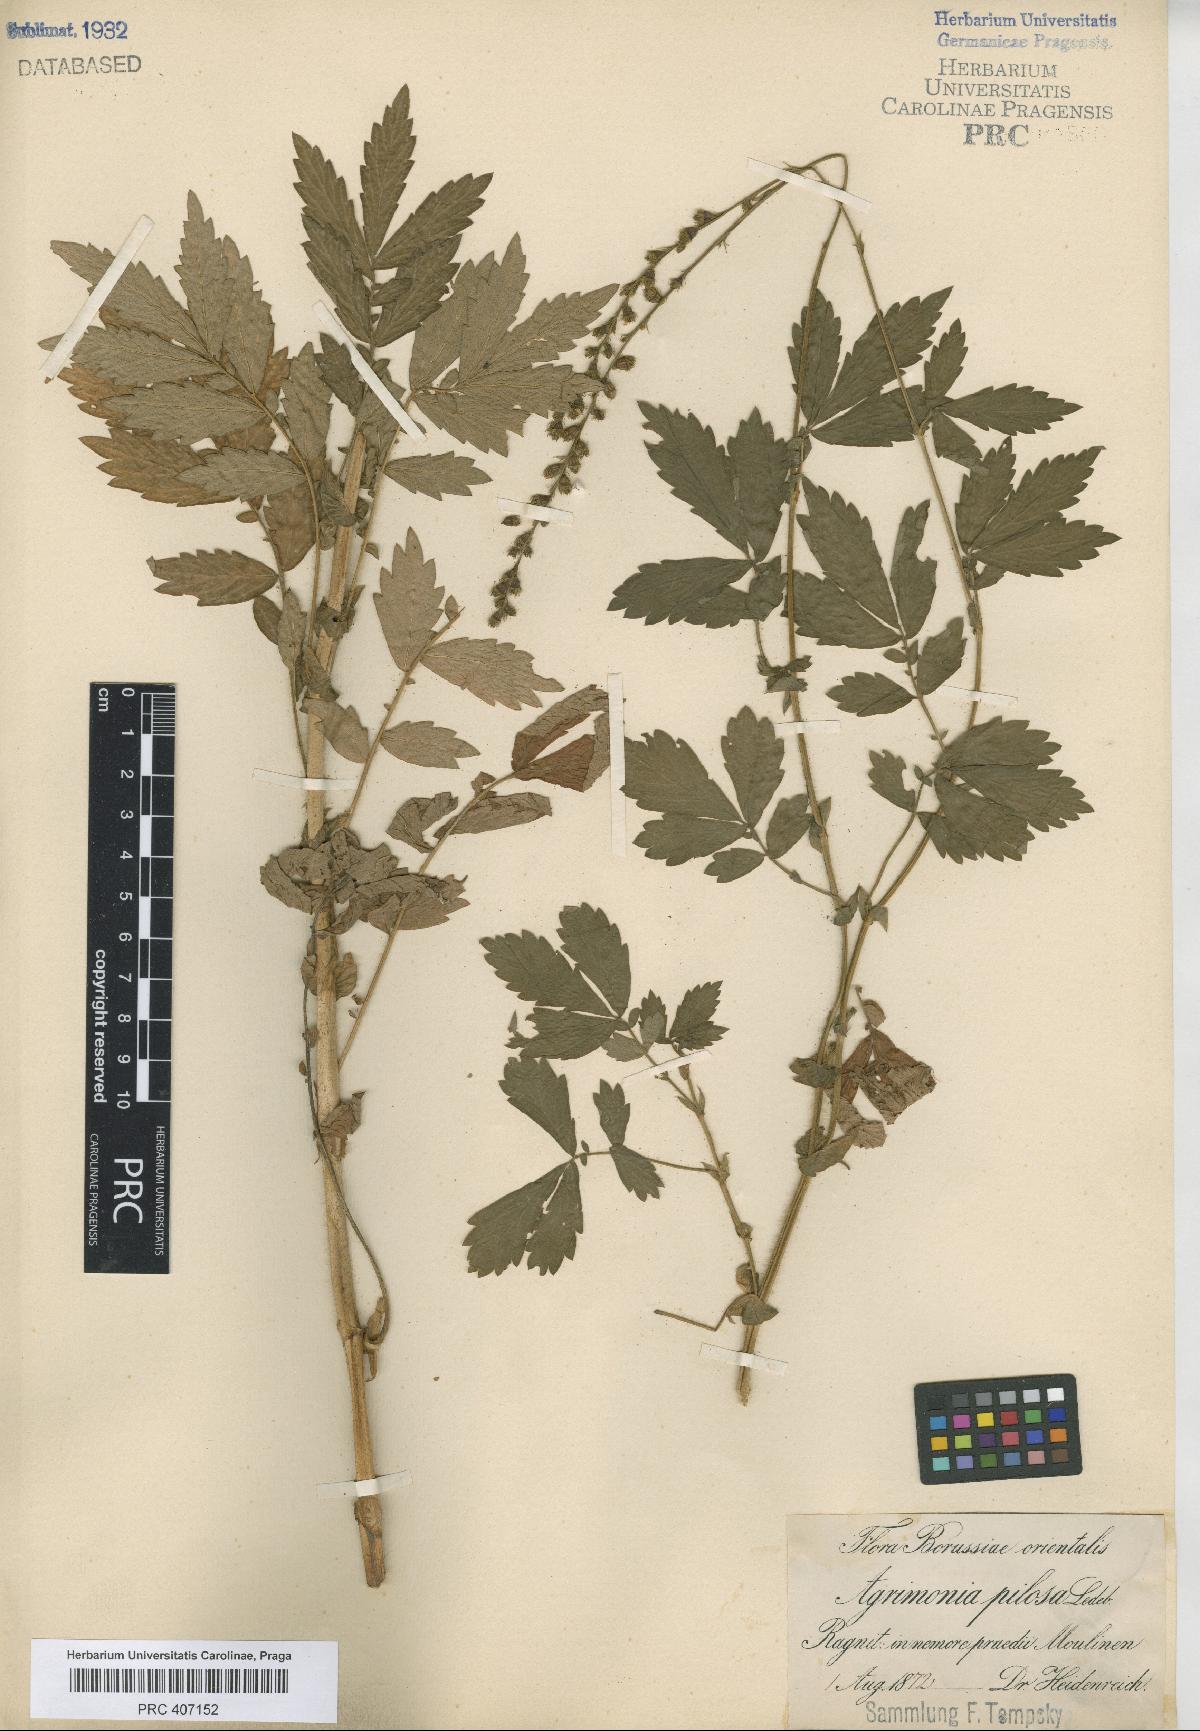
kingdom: Plantae
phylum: Tracheophyta
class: Magnoliopsida
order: Rosales
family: Rosaceae
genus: Agrimonia
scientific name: Agrimonia pilosa
